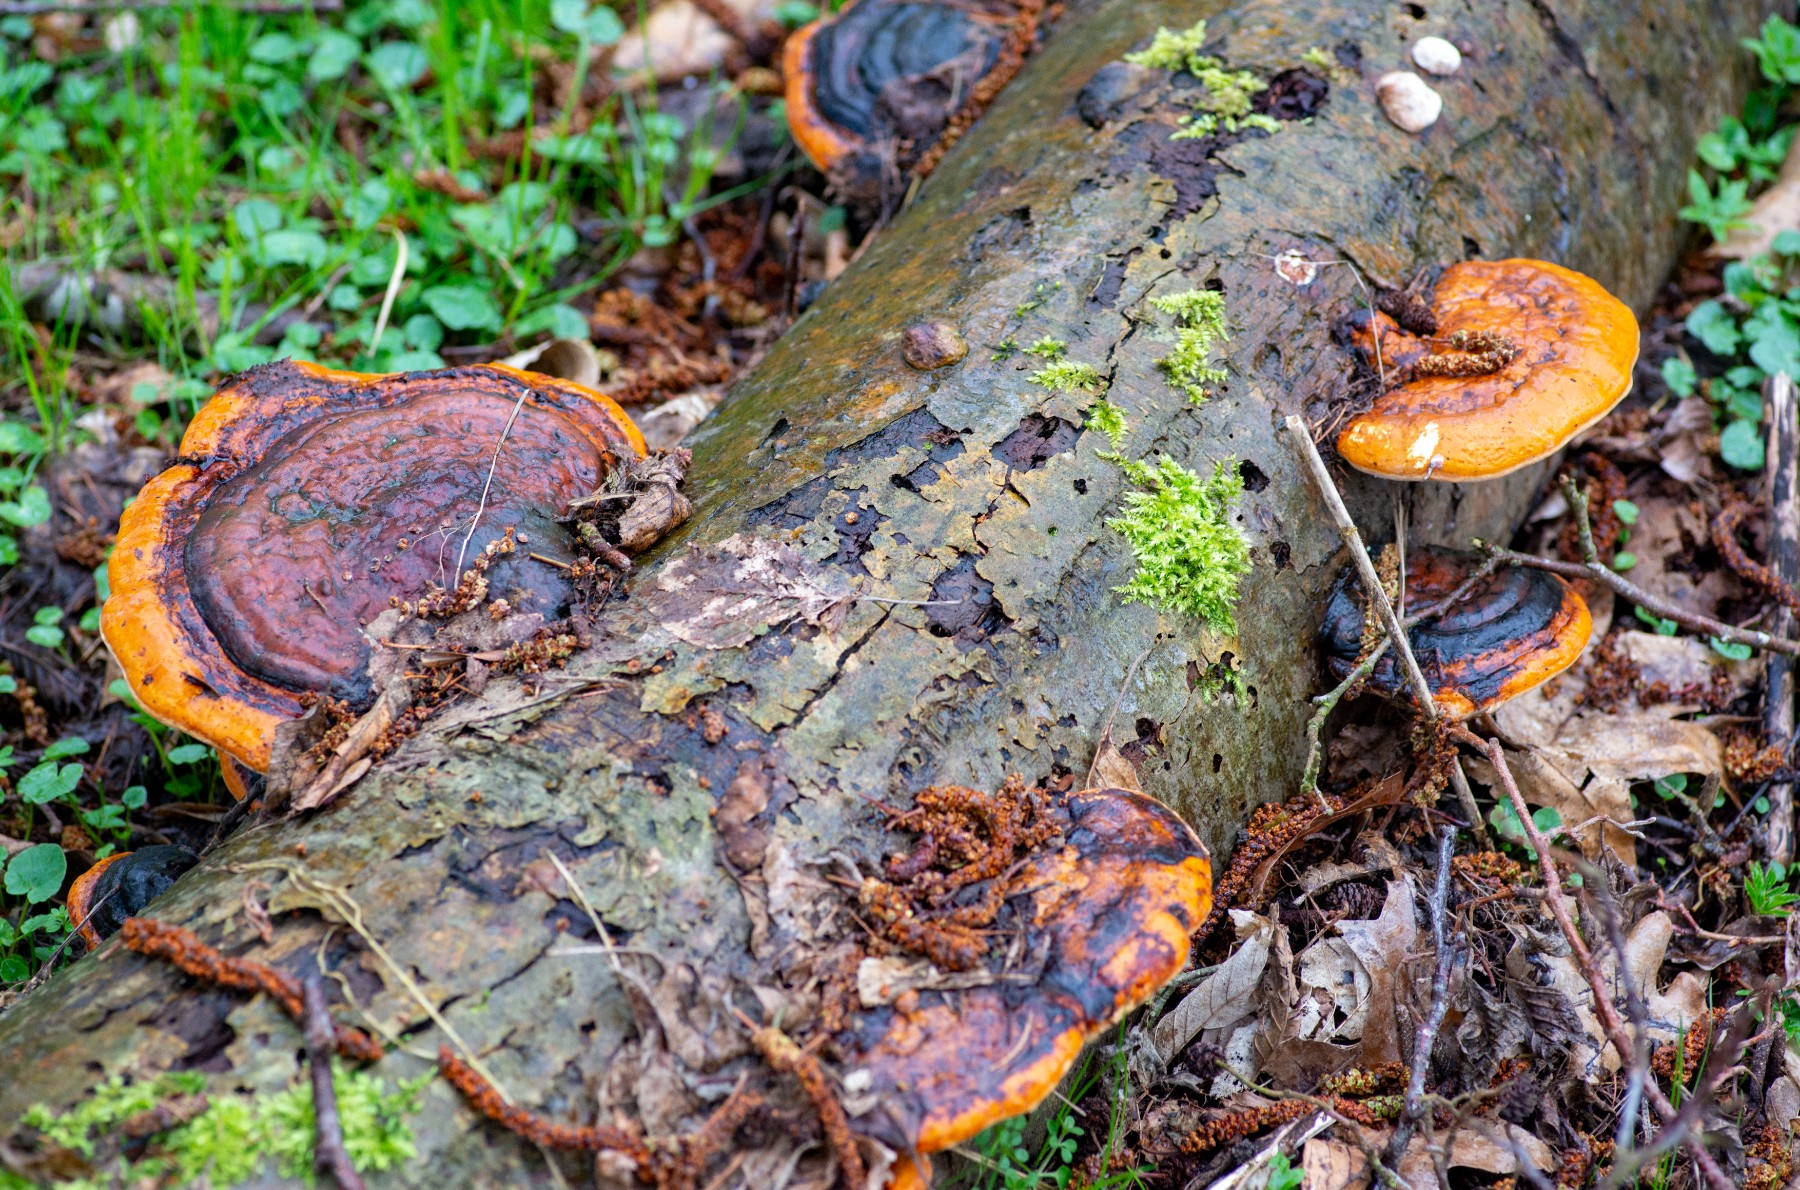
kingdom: Fungi
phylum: Basidiomycota
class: Agaricomycetes
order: Polyporales
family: Fomitopsidaceae
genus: Fomitopsis
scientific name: Fomitopsis pinicola
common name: randbæltet hovporesvamp
